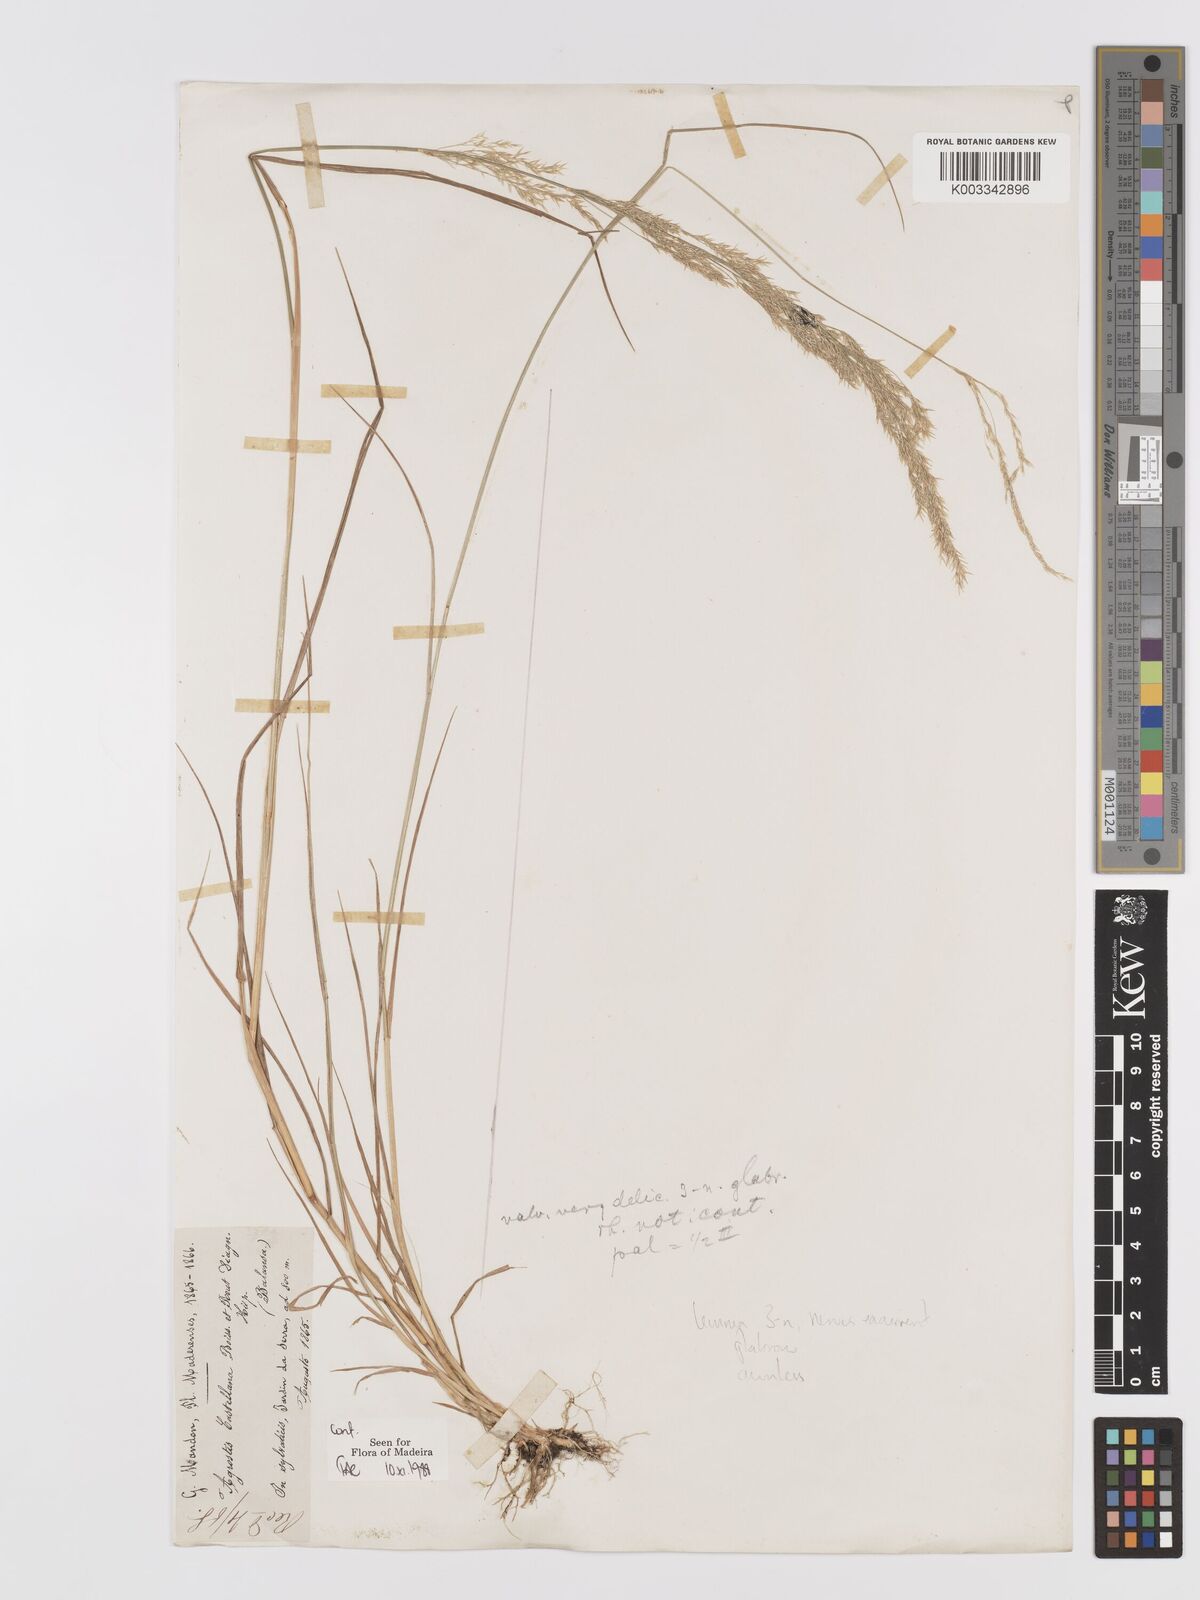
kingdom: Plantae
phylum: Tracheophyta
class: Liliopsida
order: Poales
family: Poaceae
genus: Agrostis
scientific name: Agrostis castellana
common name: Highland bent
